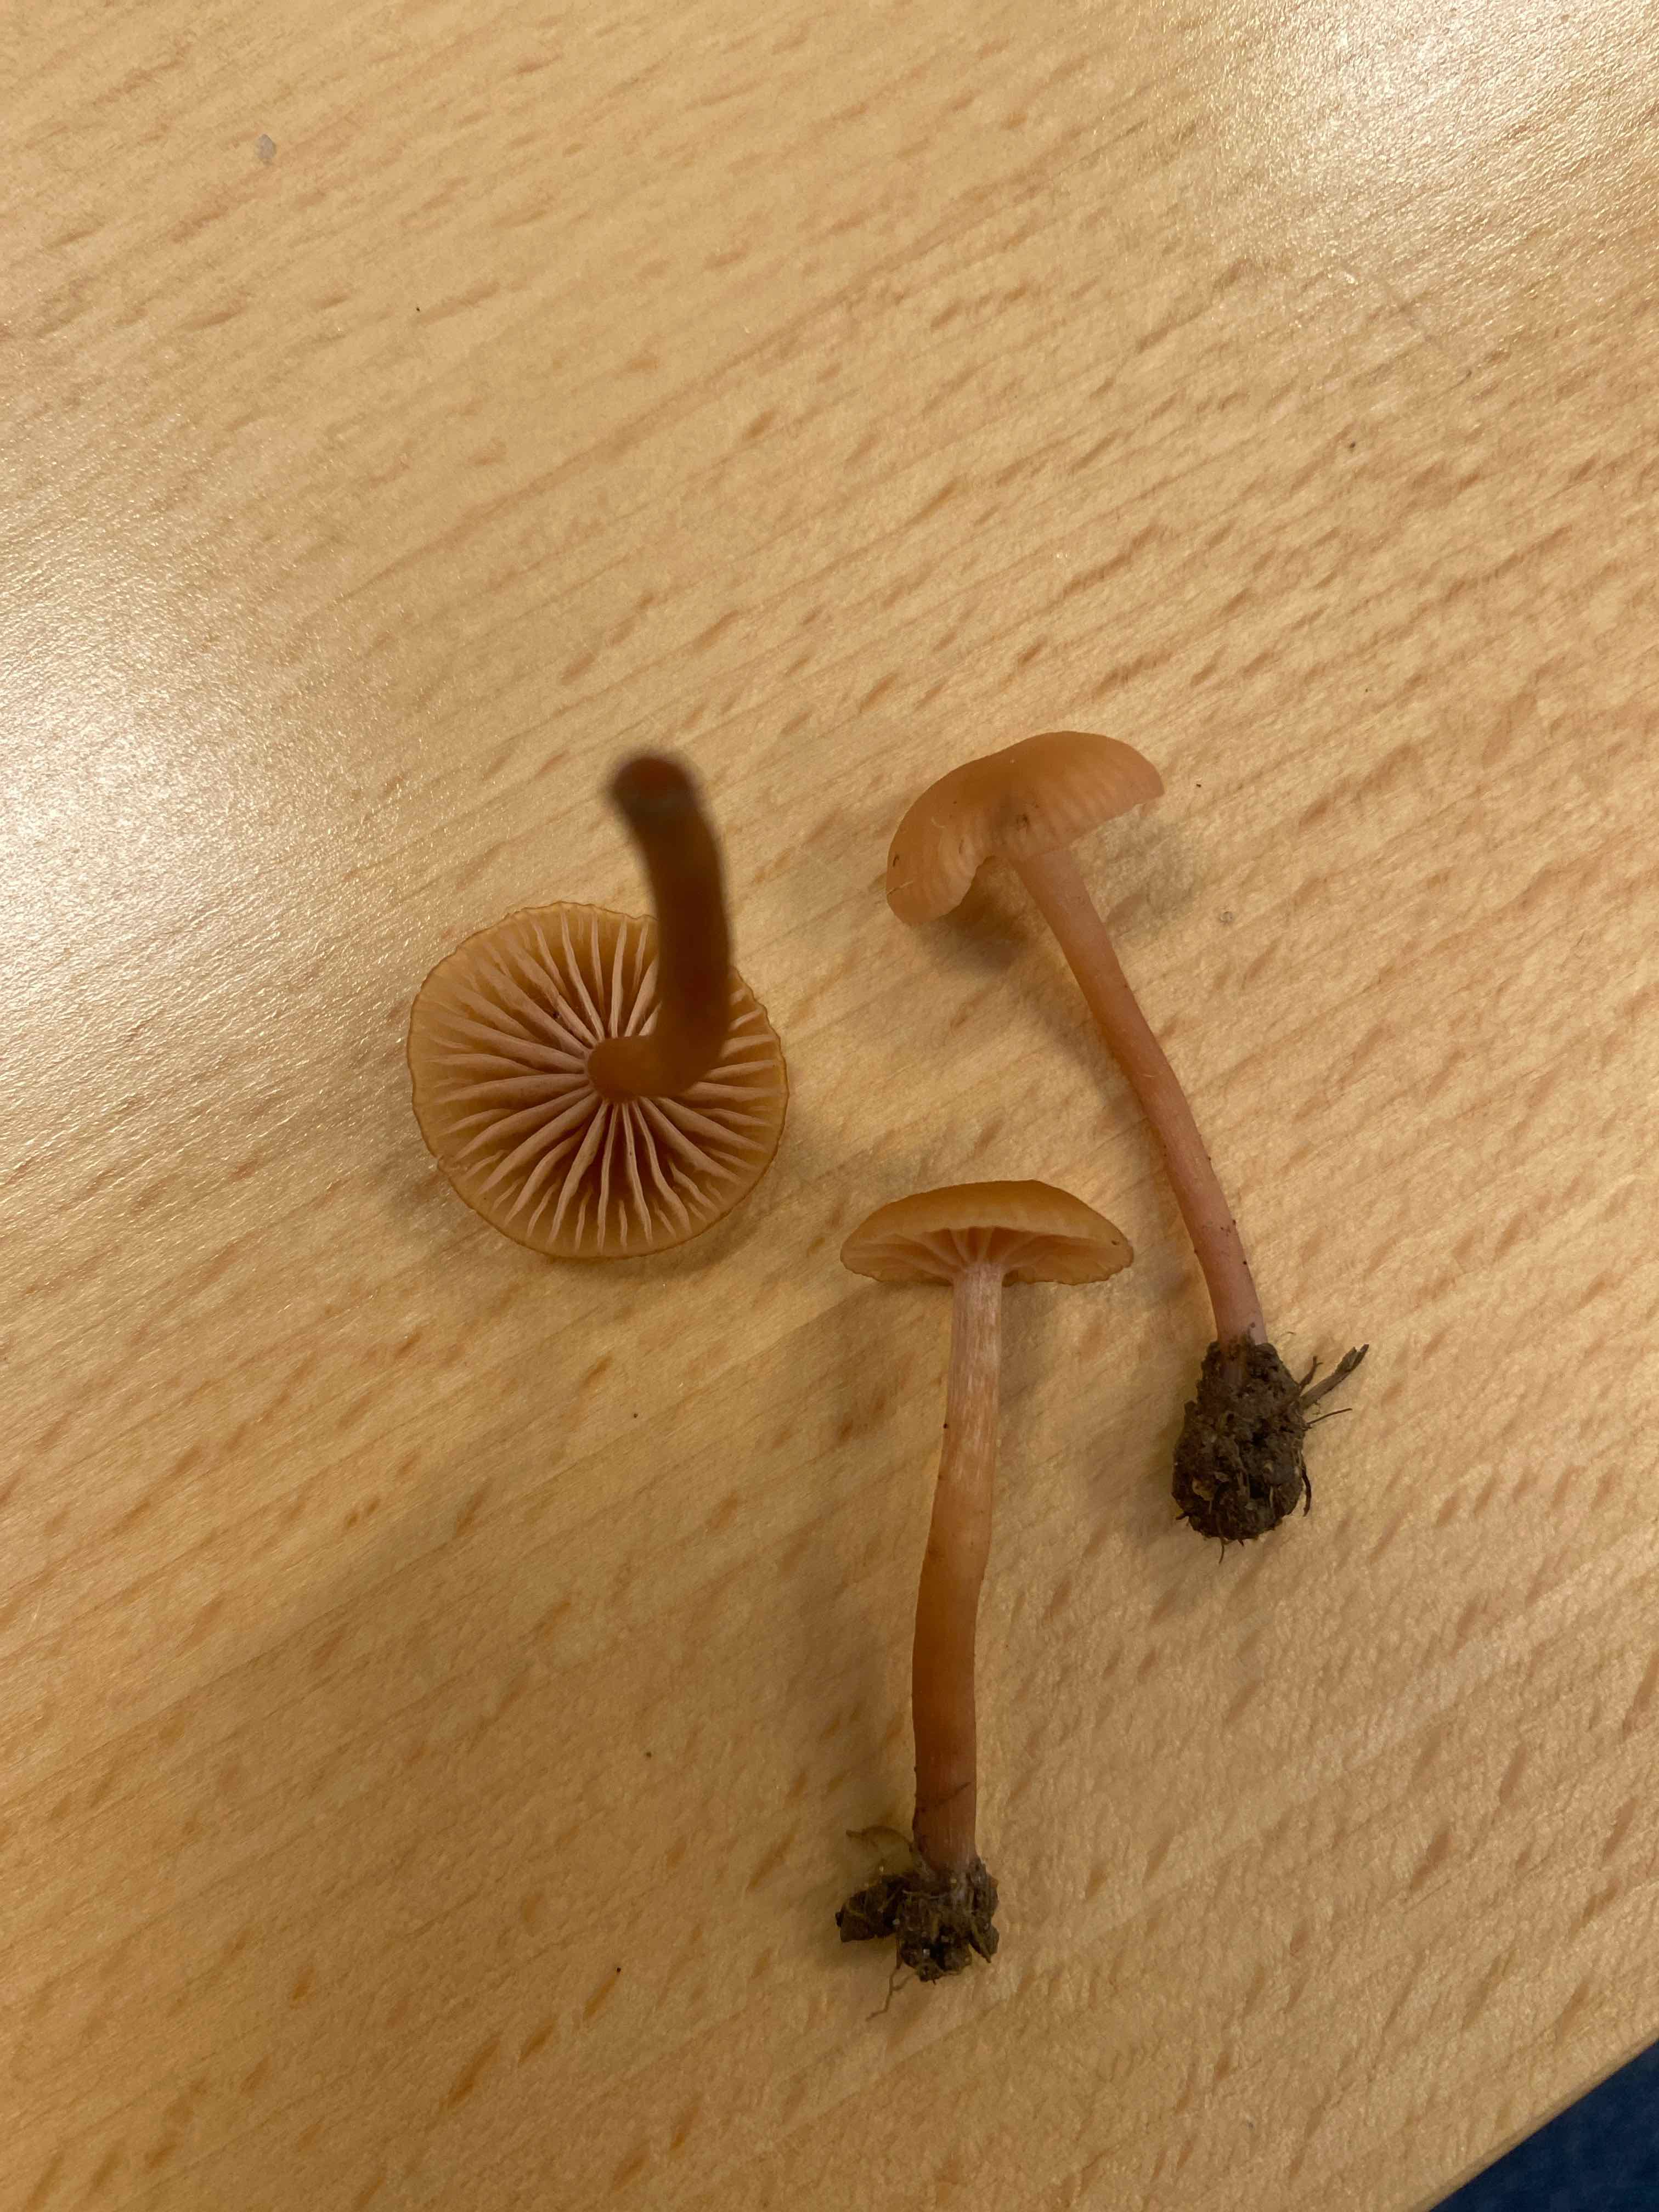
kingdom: Fungi
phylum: Basidiomycota
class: Agaricomycetes
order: Agaricales
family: Hydnangiaceae
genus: Laccaria
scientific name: Laccaria laccata
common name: rød ametysthat
